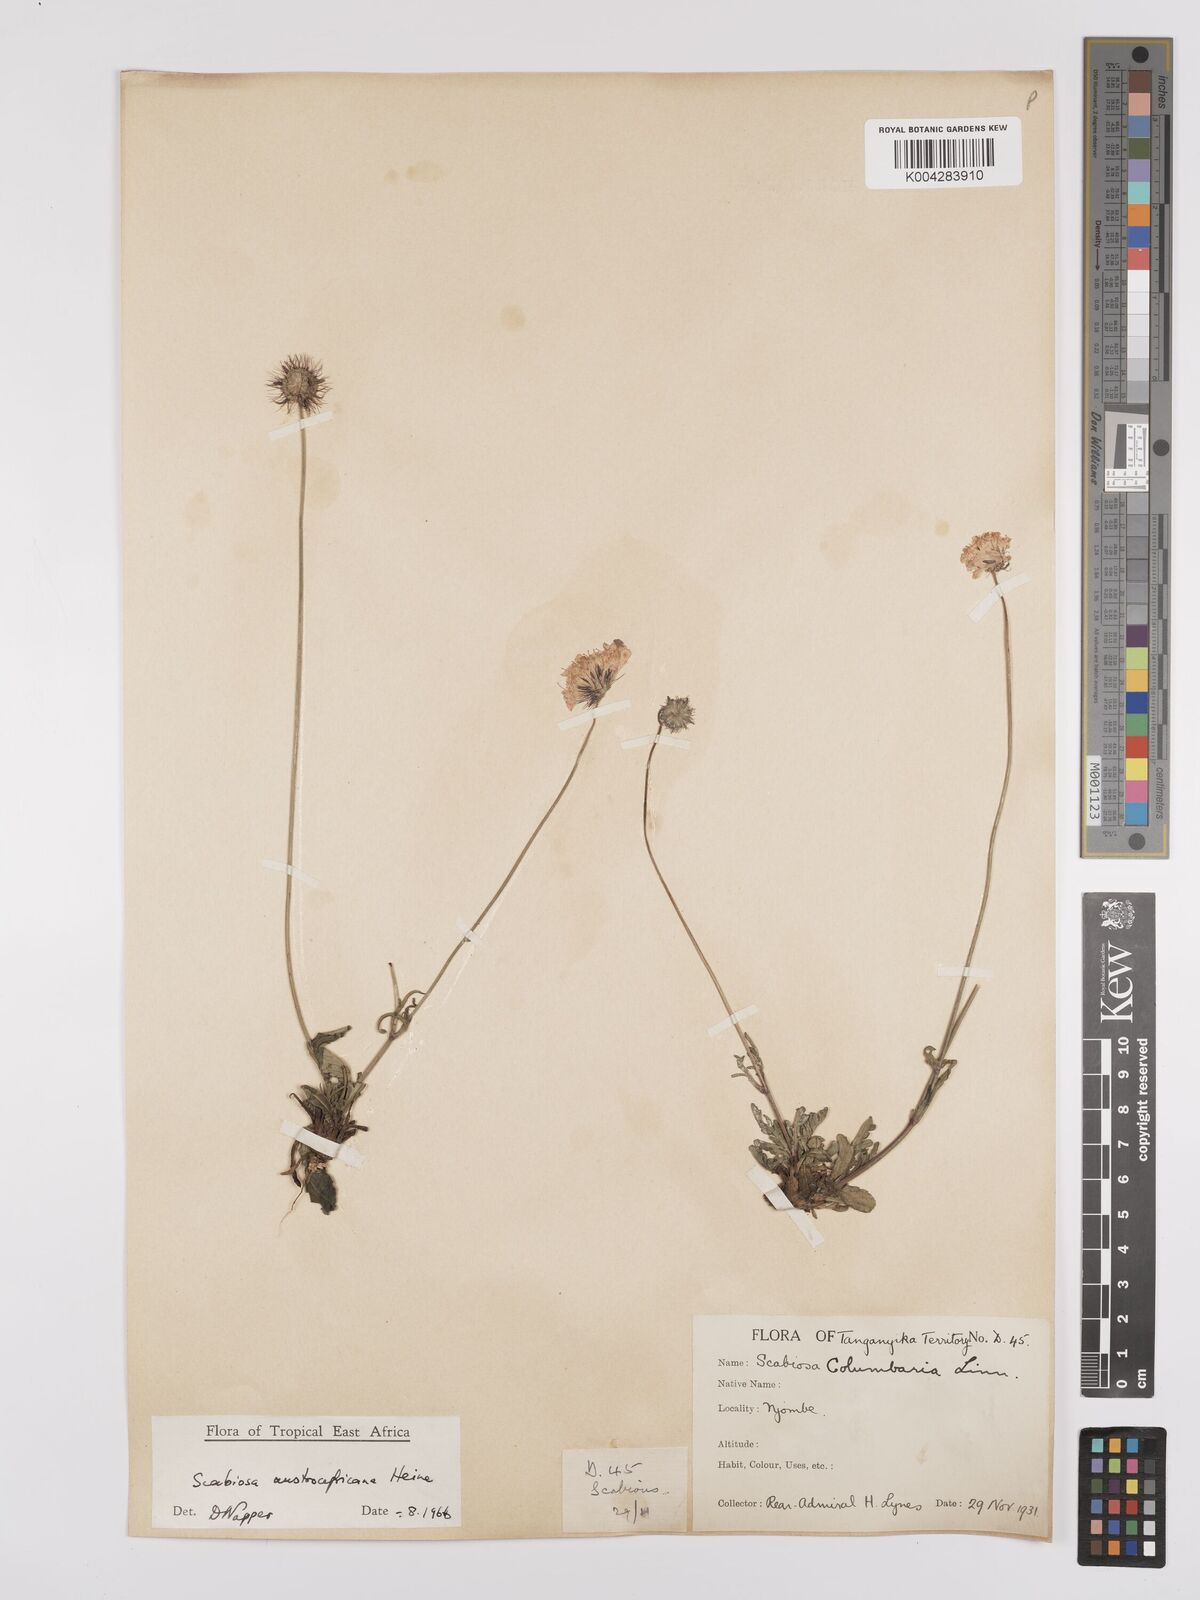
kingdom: Plantae
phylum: Tracheophyta
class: Magnoliopsida
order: Dipsacales
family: Caprifoliaceae
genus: Scabiosa
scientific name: Scabiosa austroafricana
